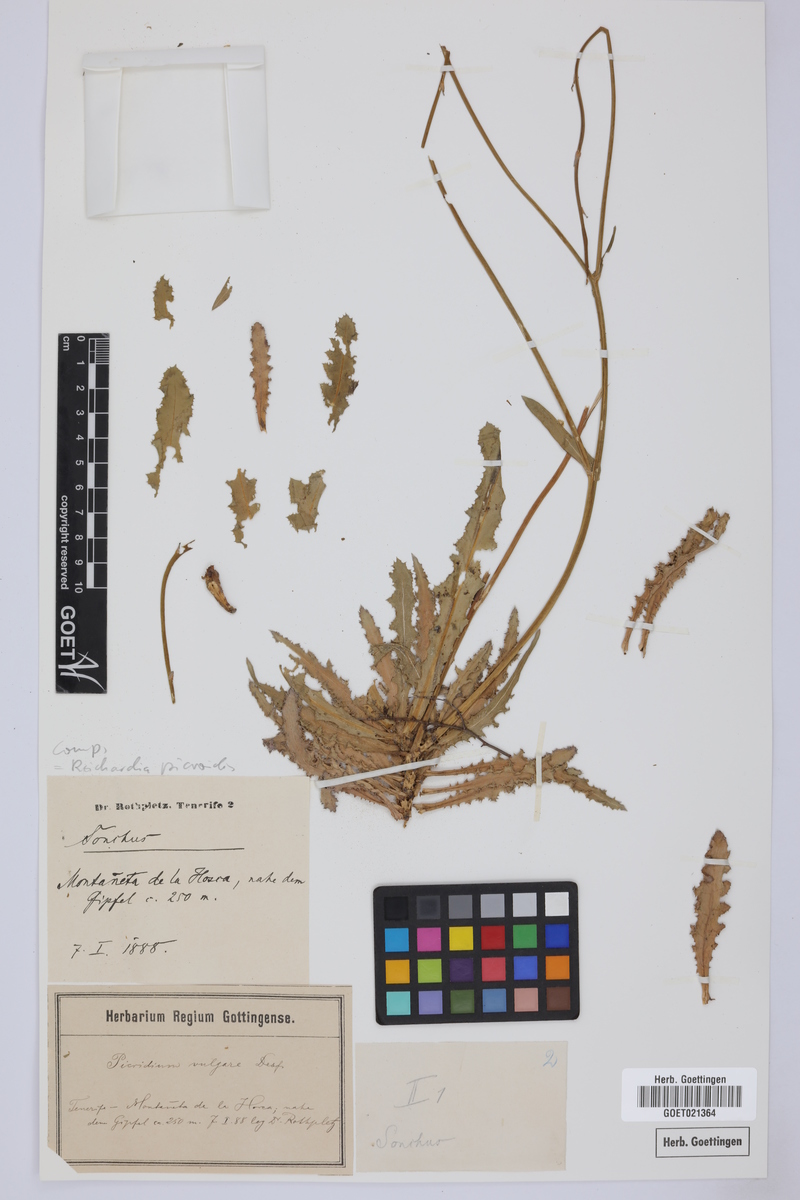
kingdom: Plantae
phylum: Tracheophyta
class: Magnoliopsida
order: Asterales
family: Asteraceae
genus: Reichardia
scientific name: Reichardia picroides
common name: Common brighteyes
